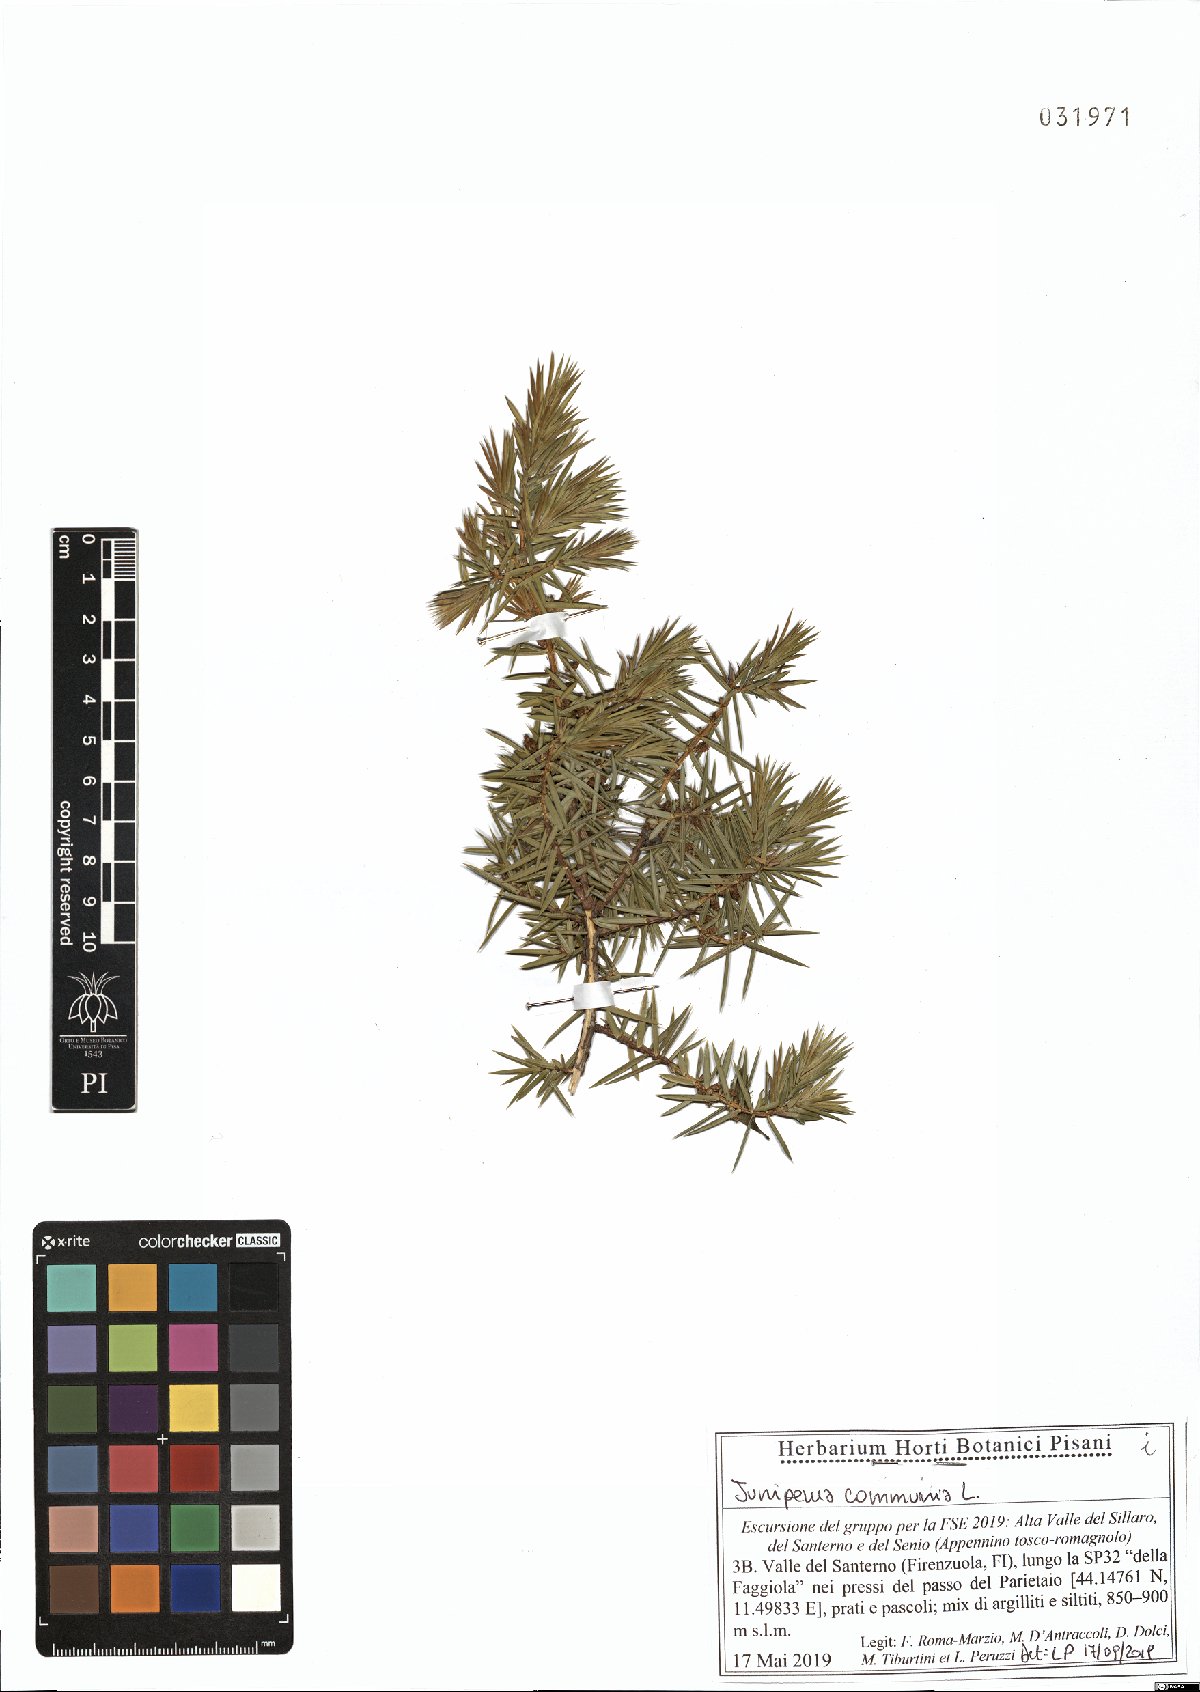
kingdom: Plantae
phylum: Tracheophyta
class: Pinopsida
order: Pinales
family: Cupressaceae
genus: Juniperus
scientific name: Juniperus communis
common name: Common juniper
